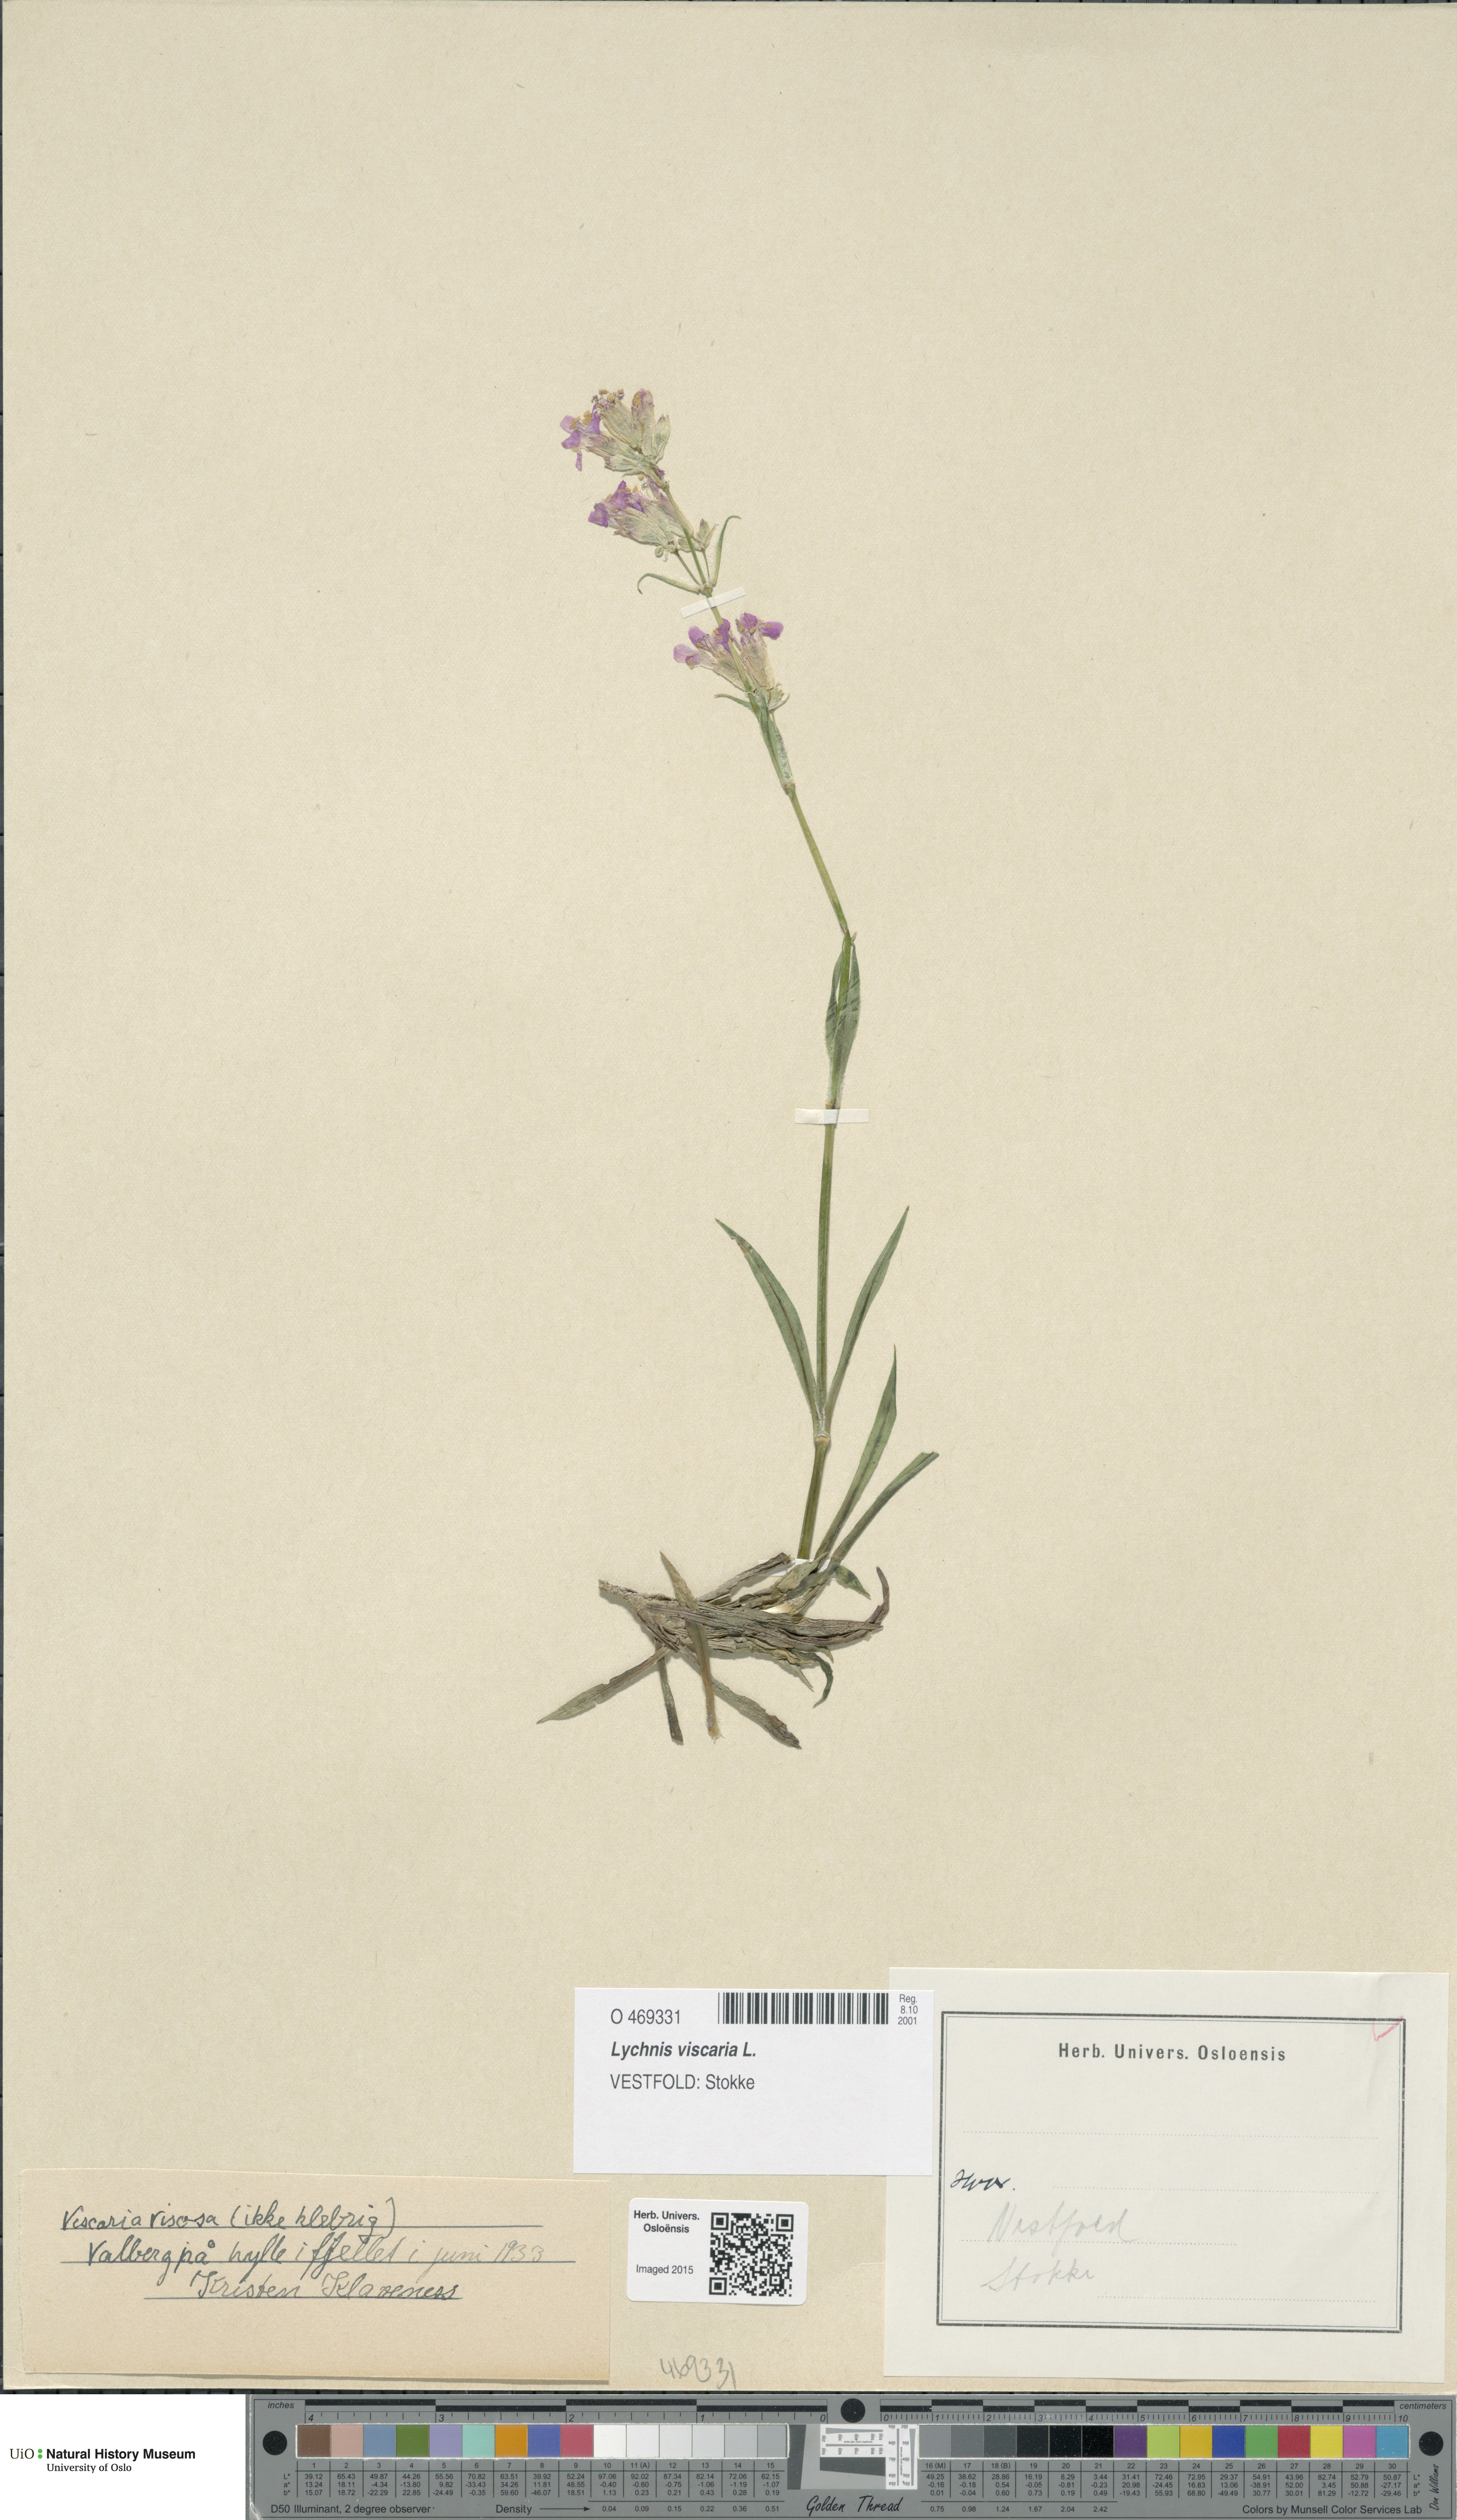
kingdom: Plantae
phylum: Tracheophyta
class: Magnoliopsida
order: Caryophyllales
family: Caryophyllaceae
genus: Viscaria
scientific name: Viscaria vulgaris
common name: Clammy campion
